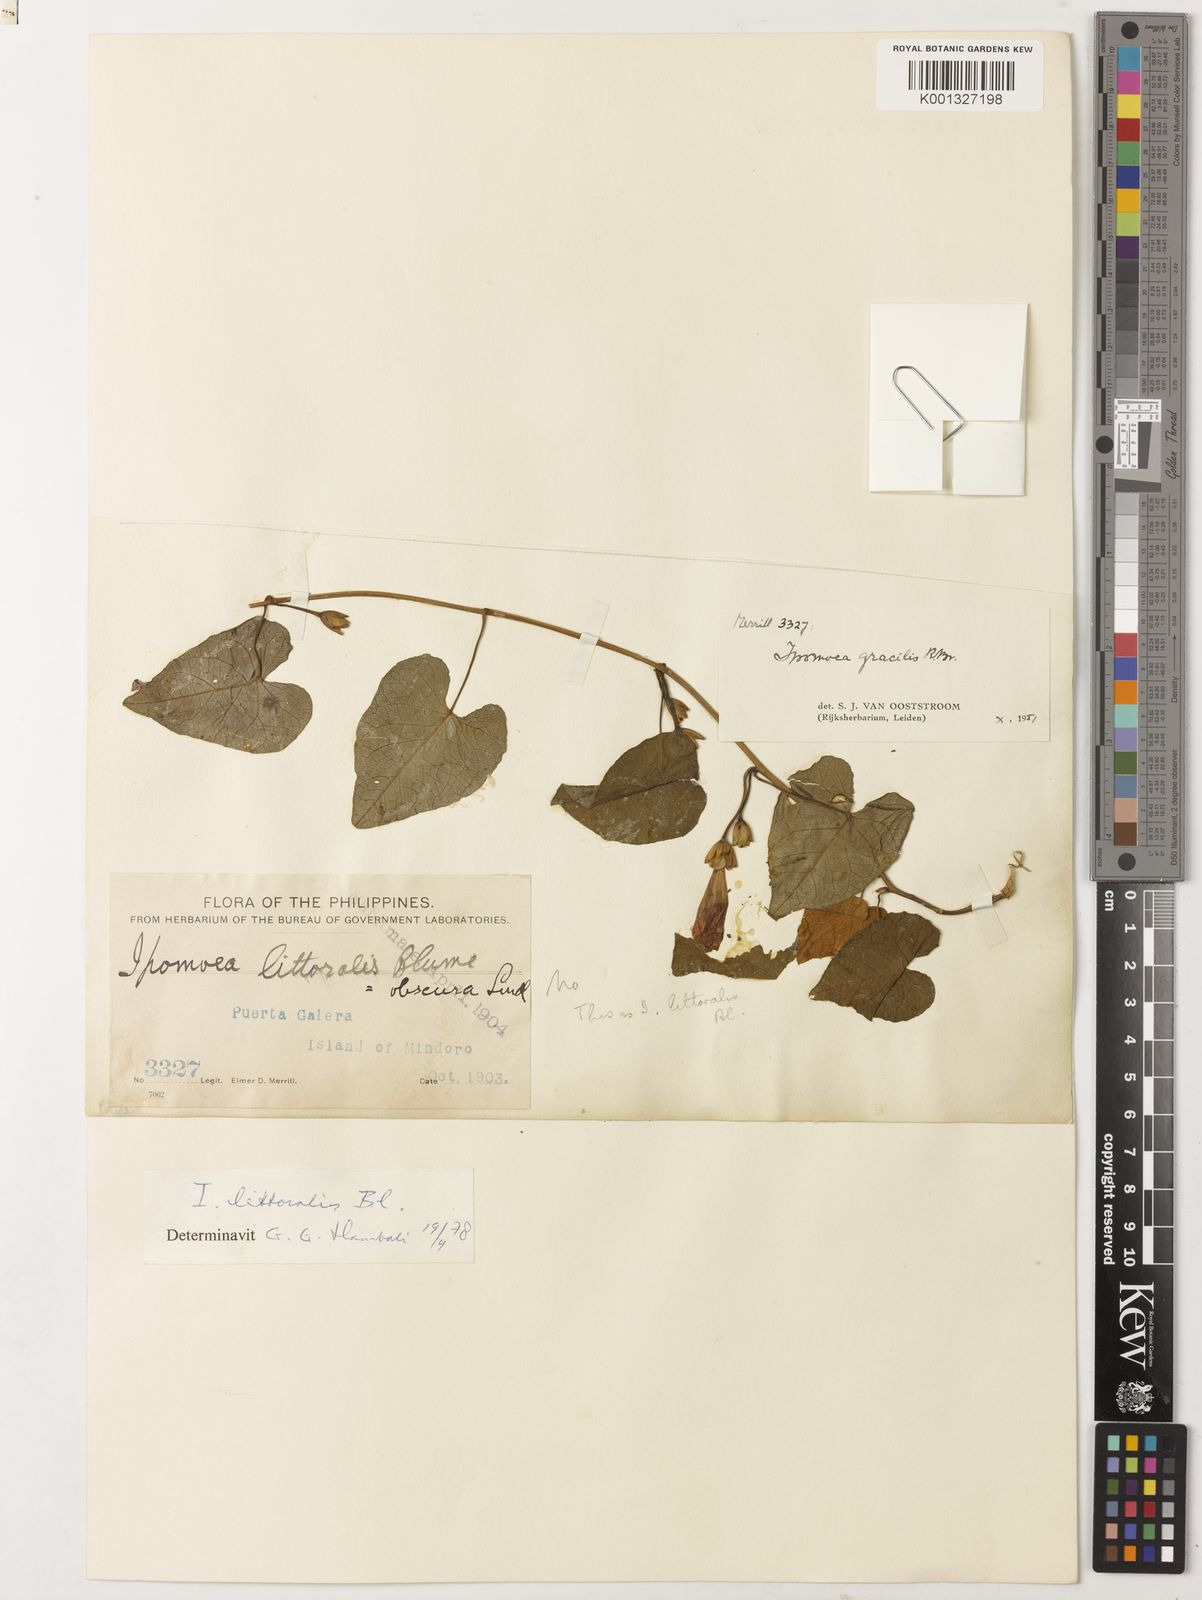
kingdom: Plantae
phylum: Tracheophyta
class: Magnoliopsida
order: Solanales
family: Convolvulaceae
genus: Ipomoea
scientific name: Ipomoea littoralis
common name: Coastal morning glory
